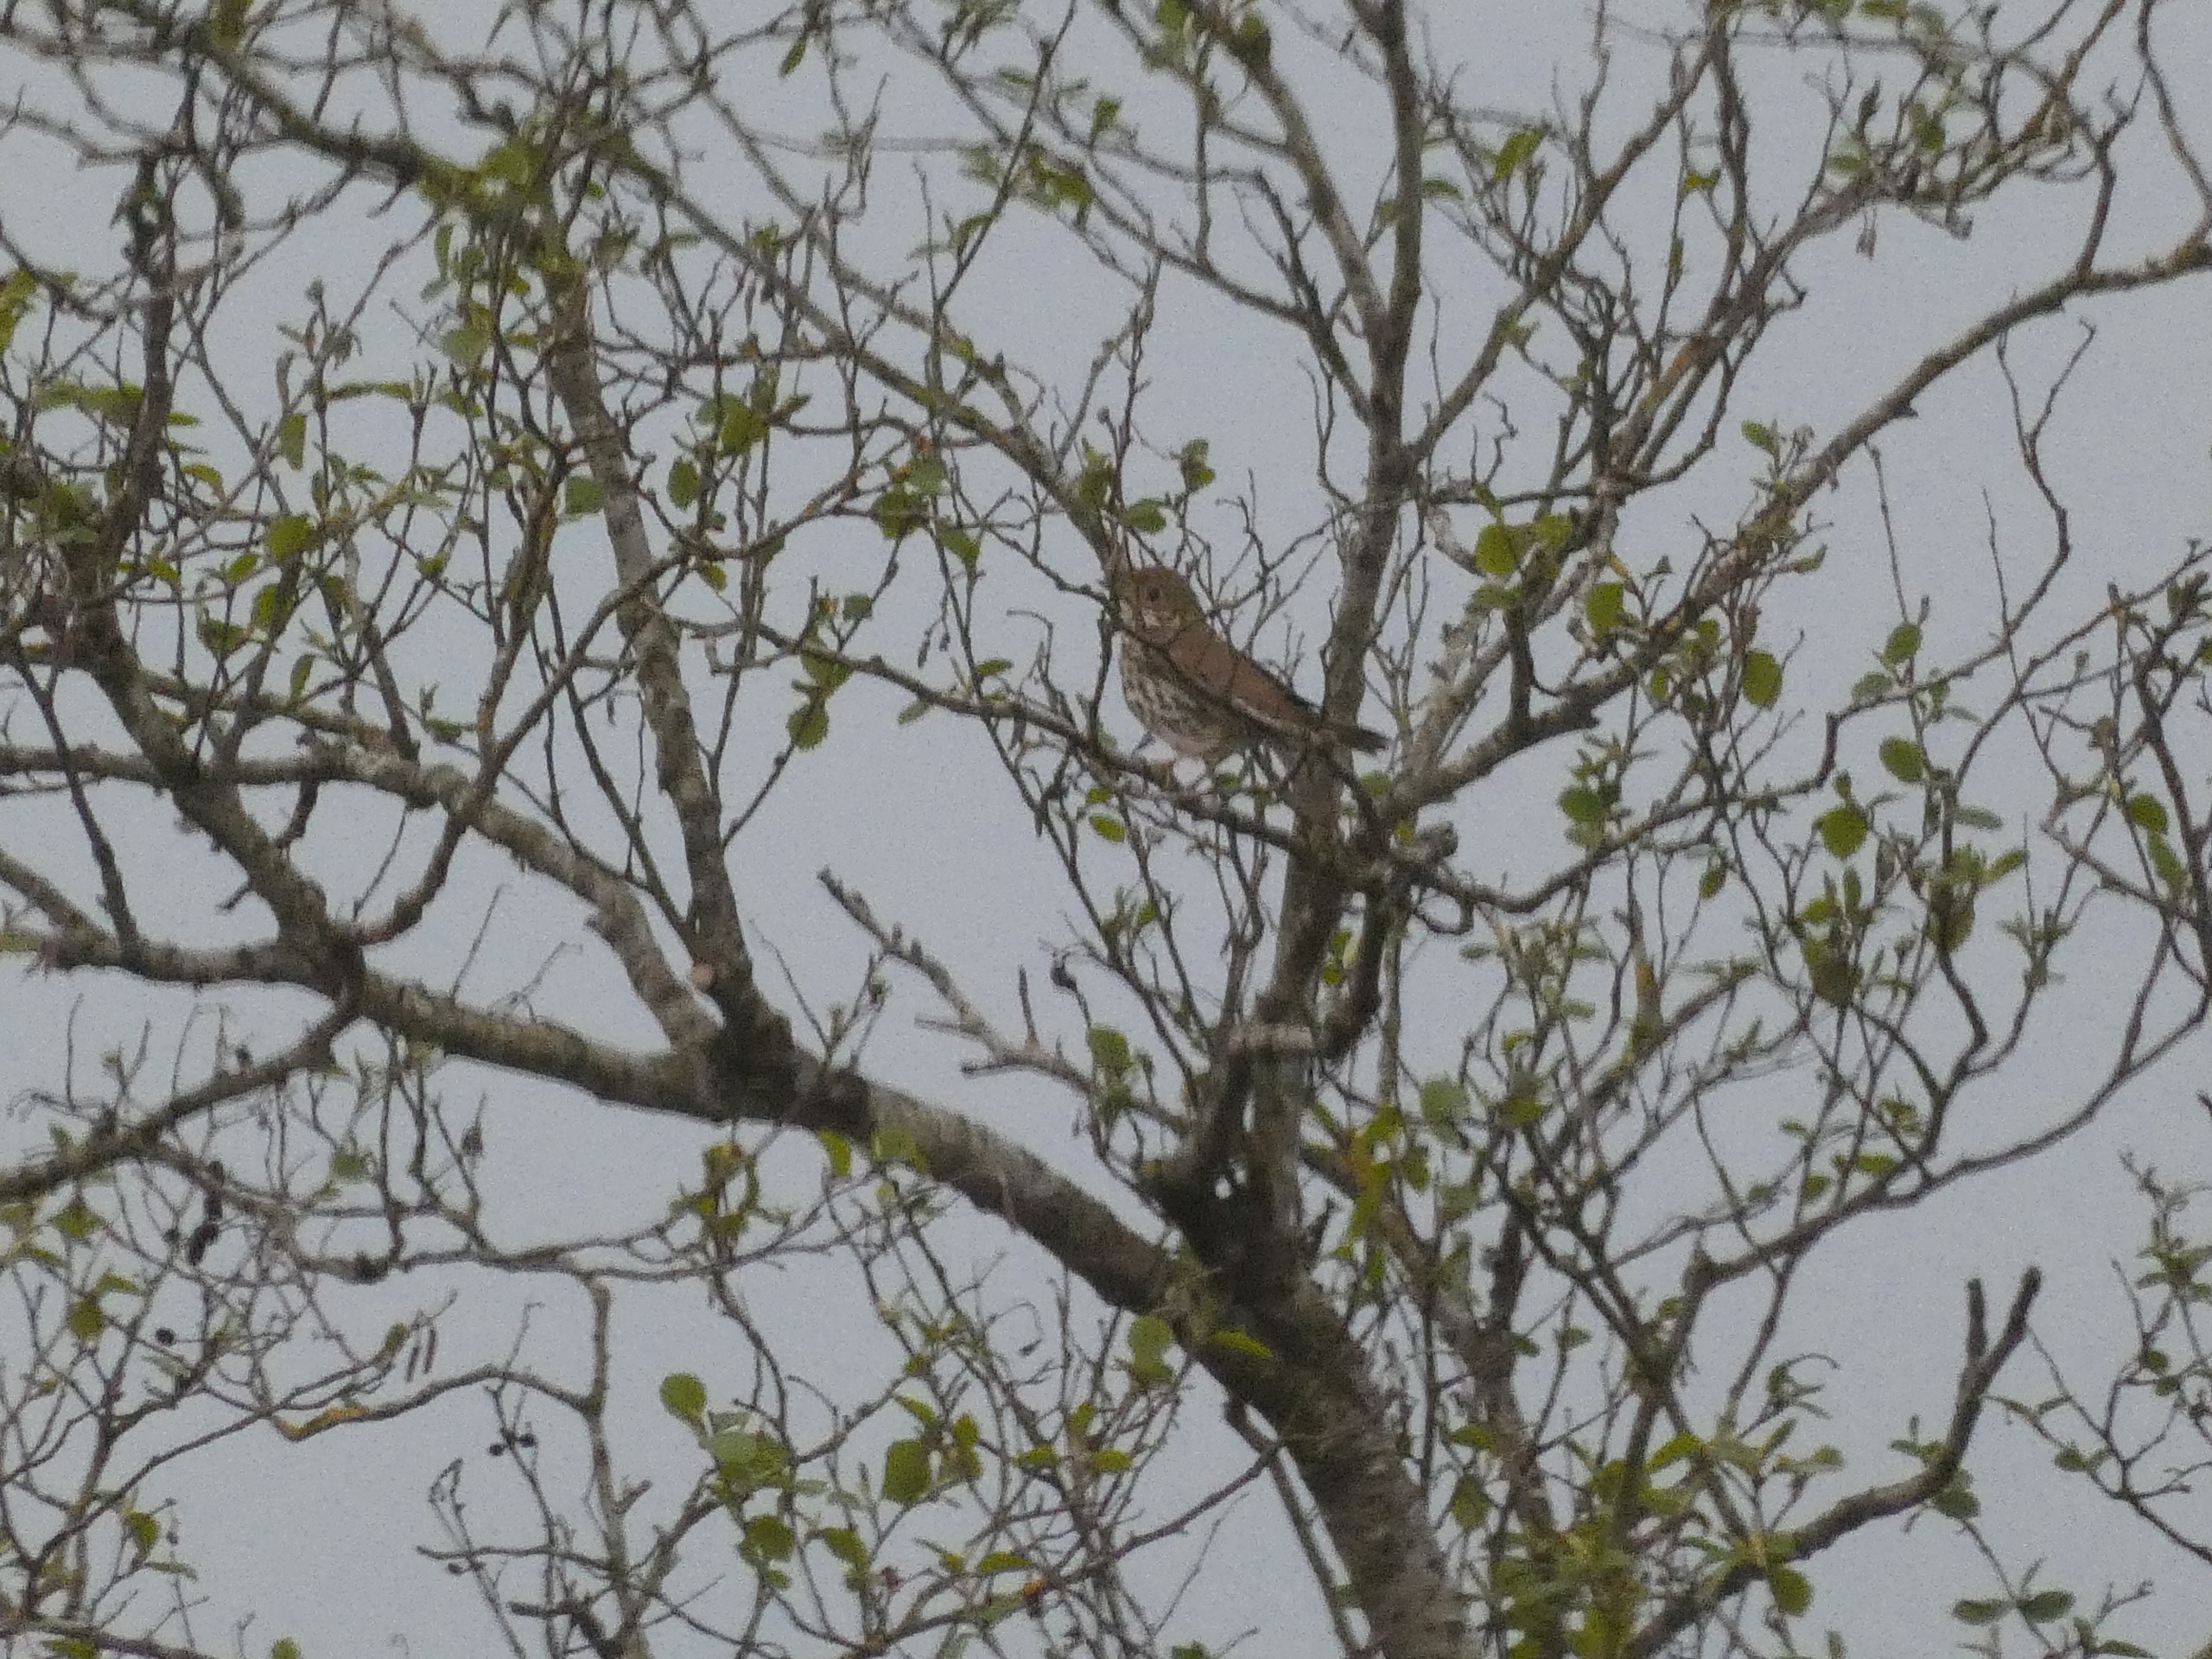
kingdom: Animalia
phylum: Chordata
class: Aves
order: Passeriformes
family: Turdidae
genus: Turdus
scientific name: Turdus philomelos
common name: Sangdrossel
